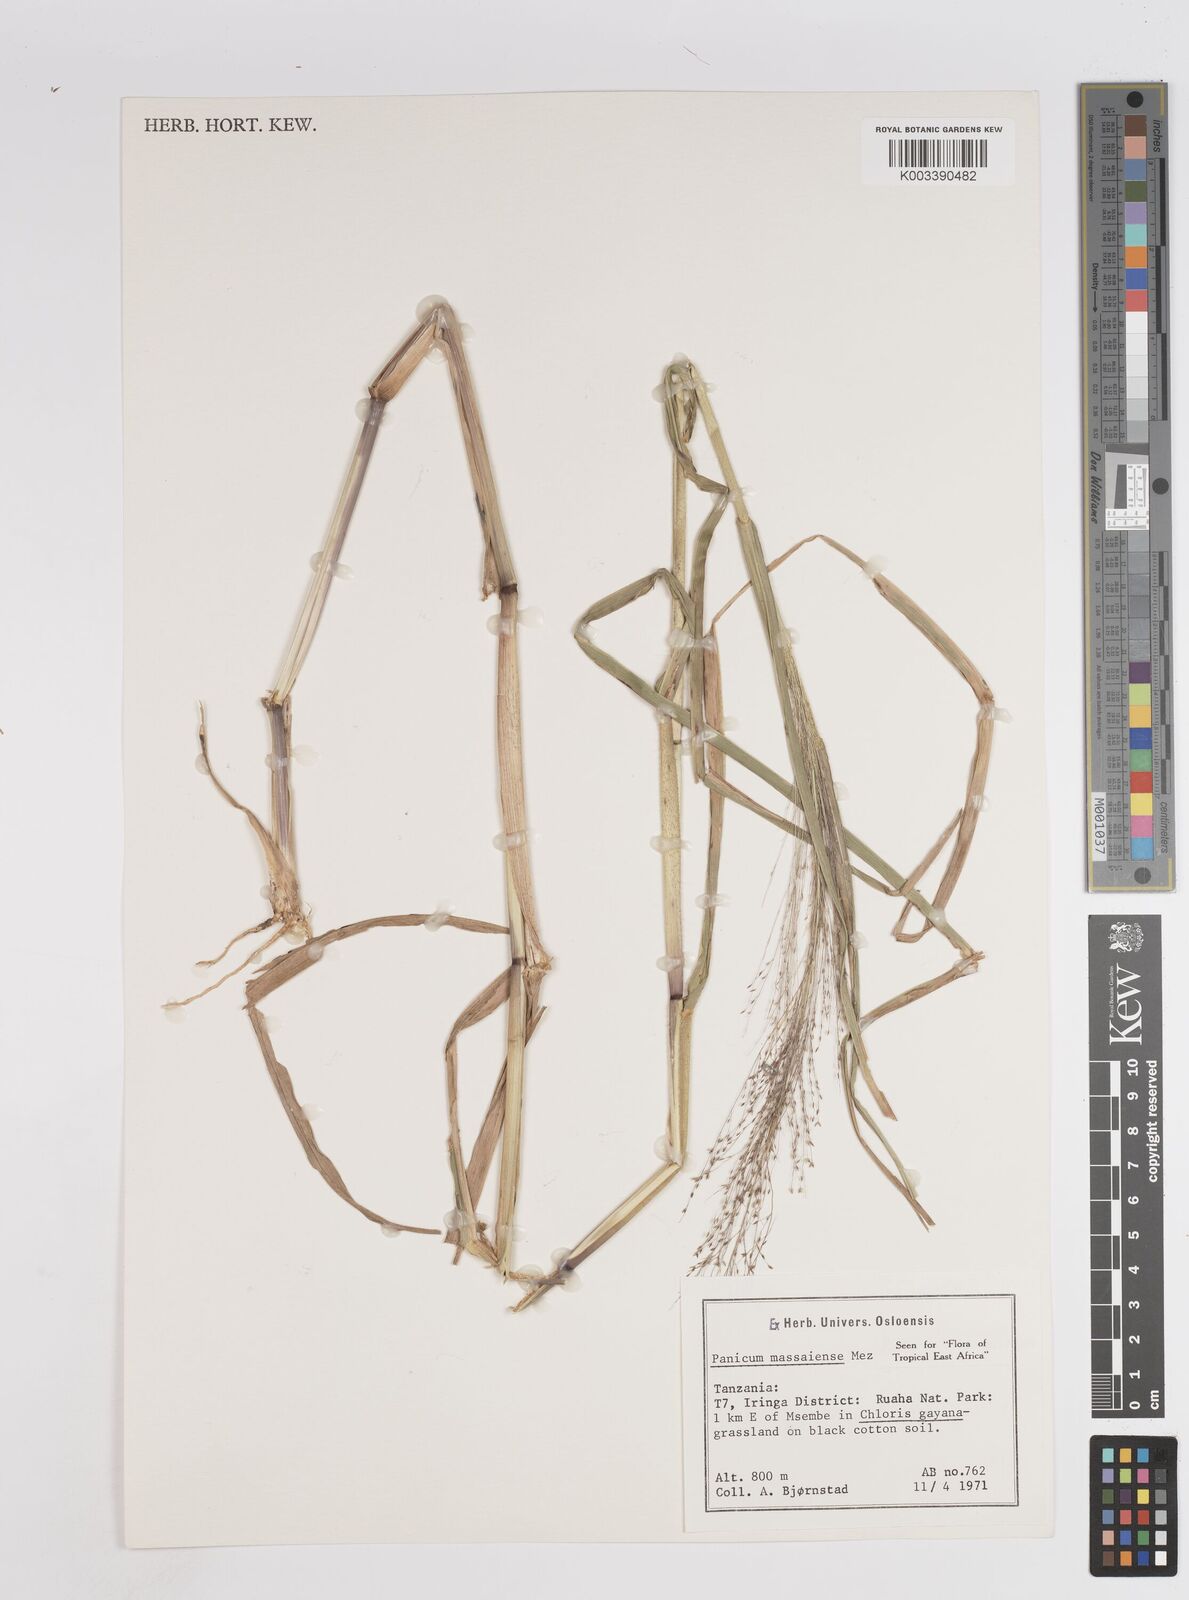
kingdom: Plantae
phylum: Tracheophyta
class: Liliopsida
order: Poales
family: Poaceae
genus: Panicum
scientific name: Panicum massaiense
